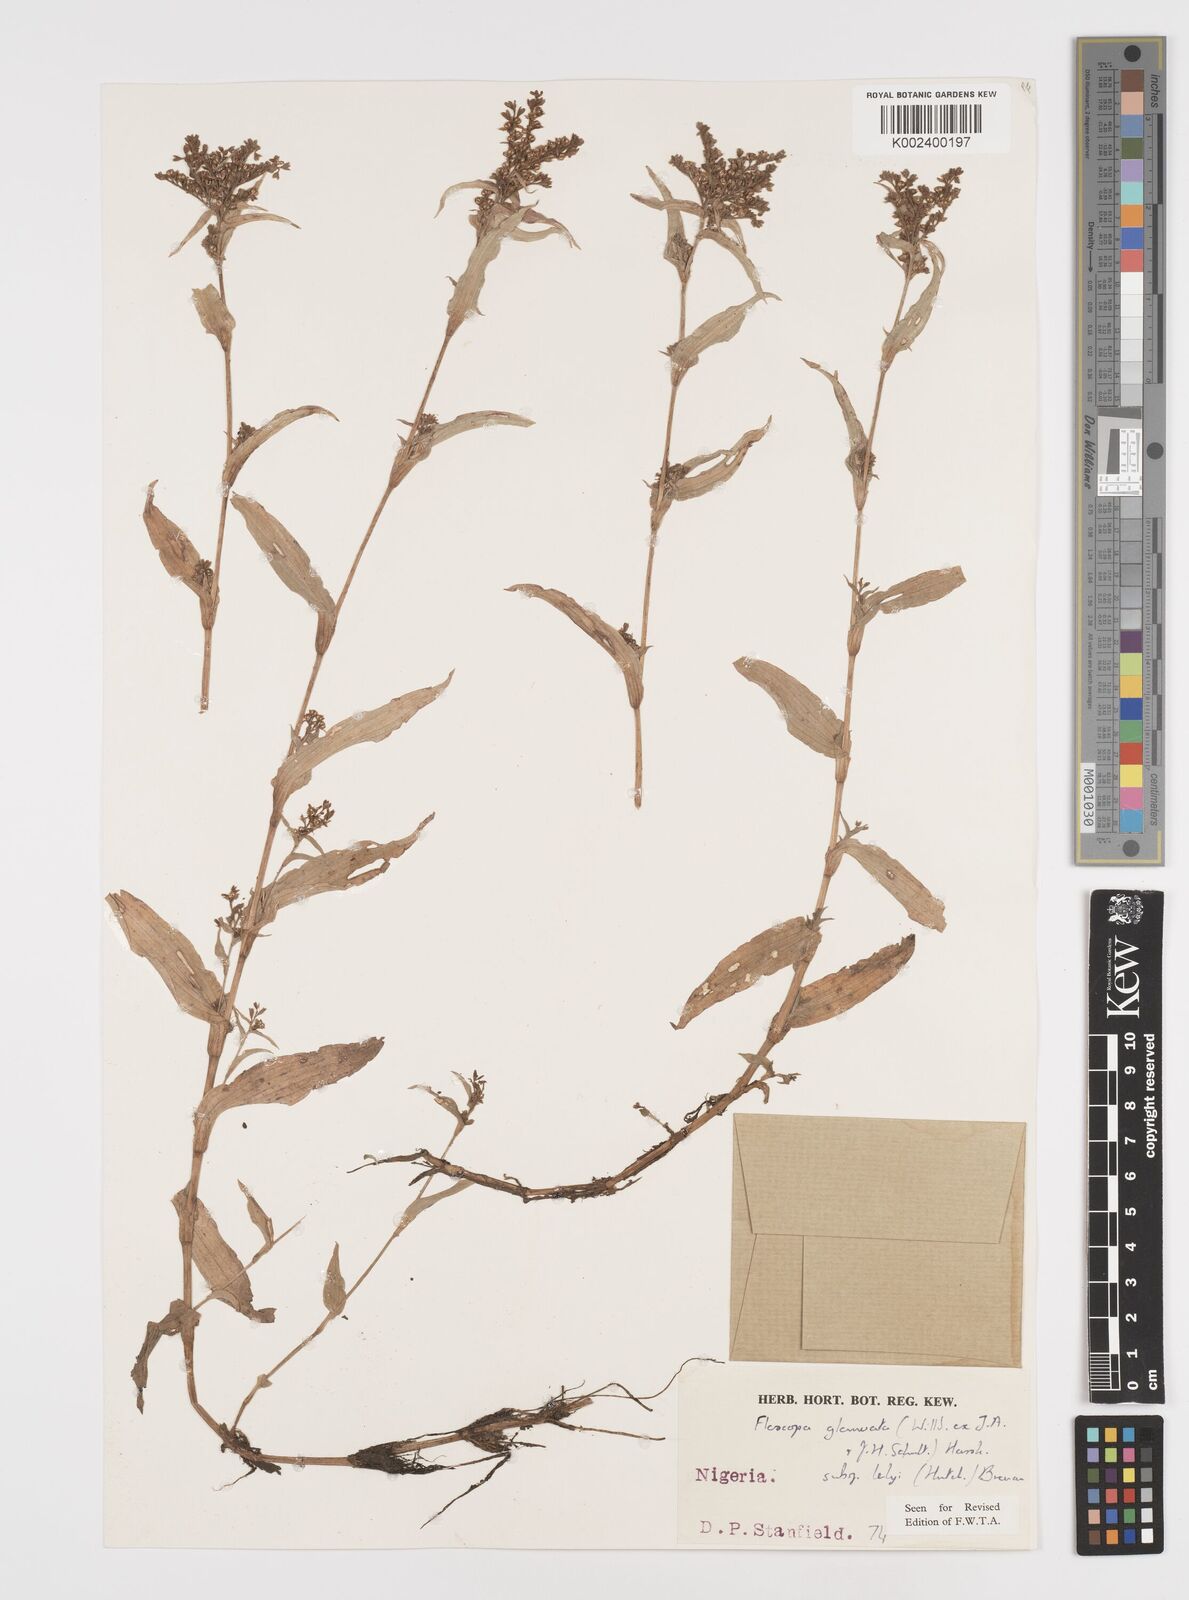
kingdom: Plantae
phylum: Tracheophyta
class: Liliopsida
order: Commelinales
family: Commelinaceae
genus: Floscopa
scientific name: Floscopa glomerata
